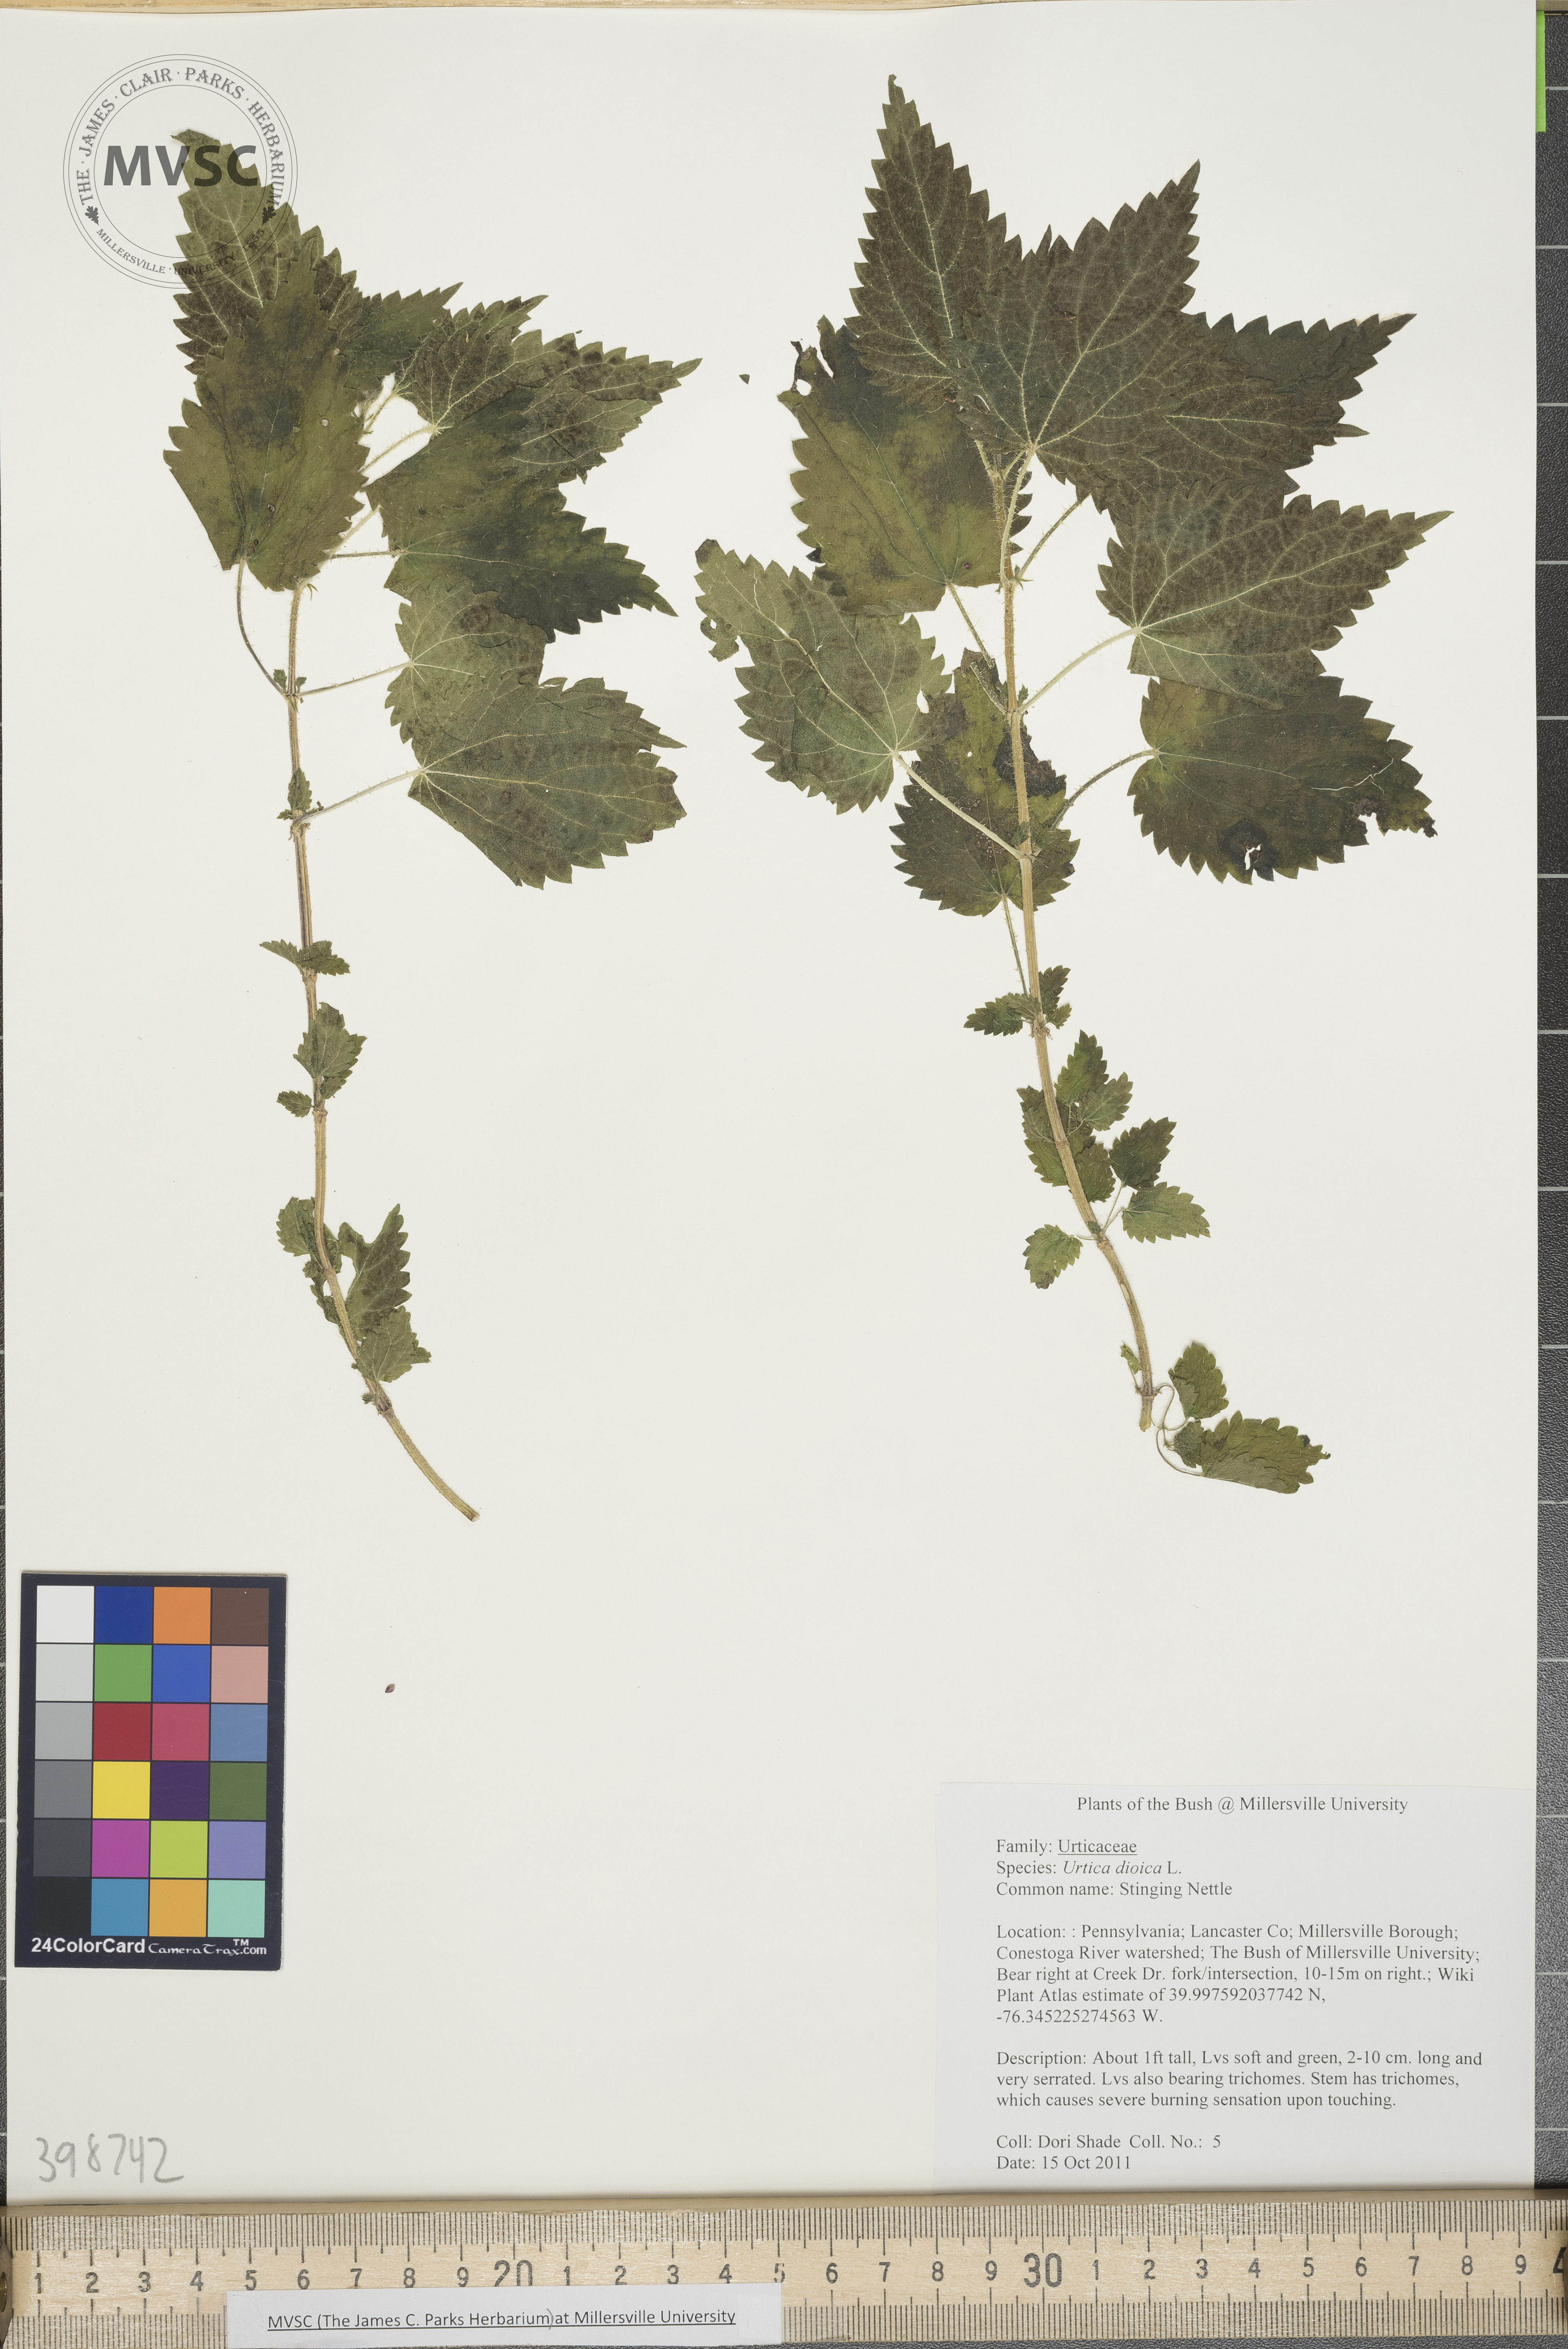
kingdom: Plantae
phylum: Tracheophyta
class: Magnoliopsida
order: Rosales
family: Urticaceae
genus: Urtica
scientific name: Urtica dioica
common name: Stinging nettle
